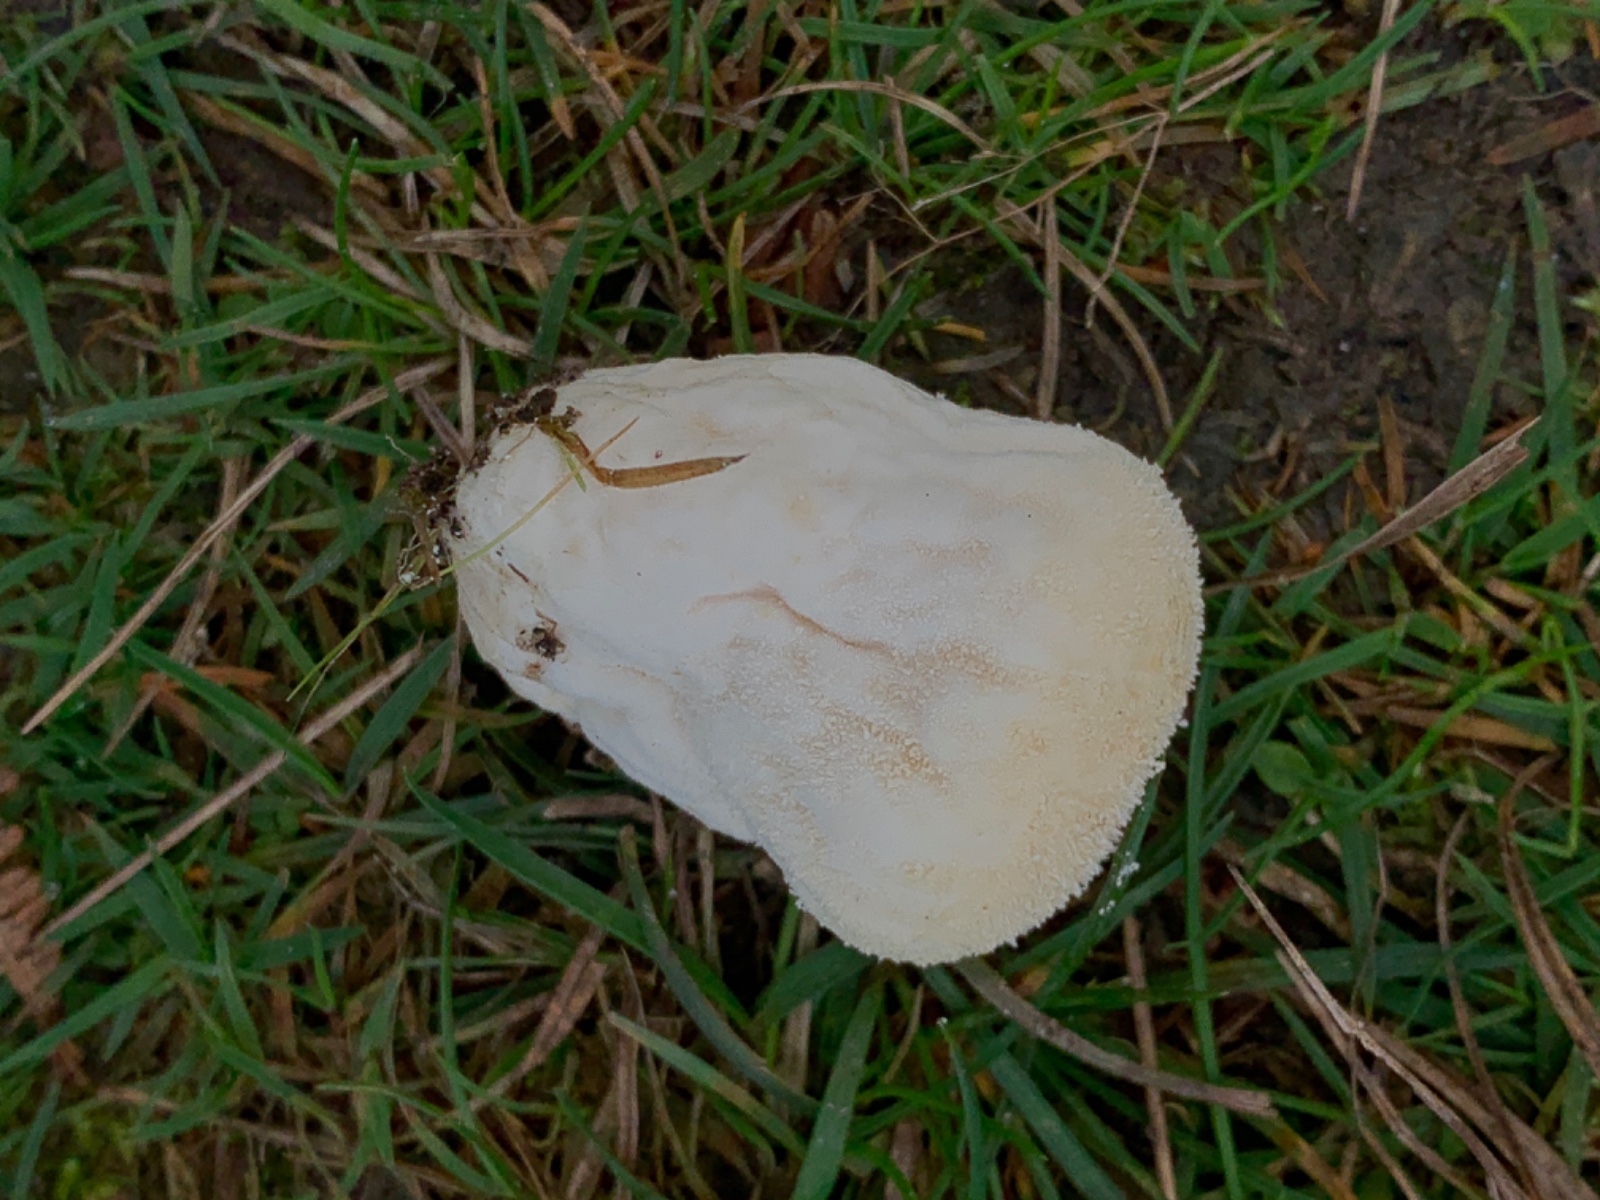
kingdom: Fungi
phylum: Basidiomycota
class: Agaricomycetes
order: Agaricales
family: Lycoperdaceae
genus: Lycoperdon
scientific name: Lycoperdon pratense
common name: flad støvbold
